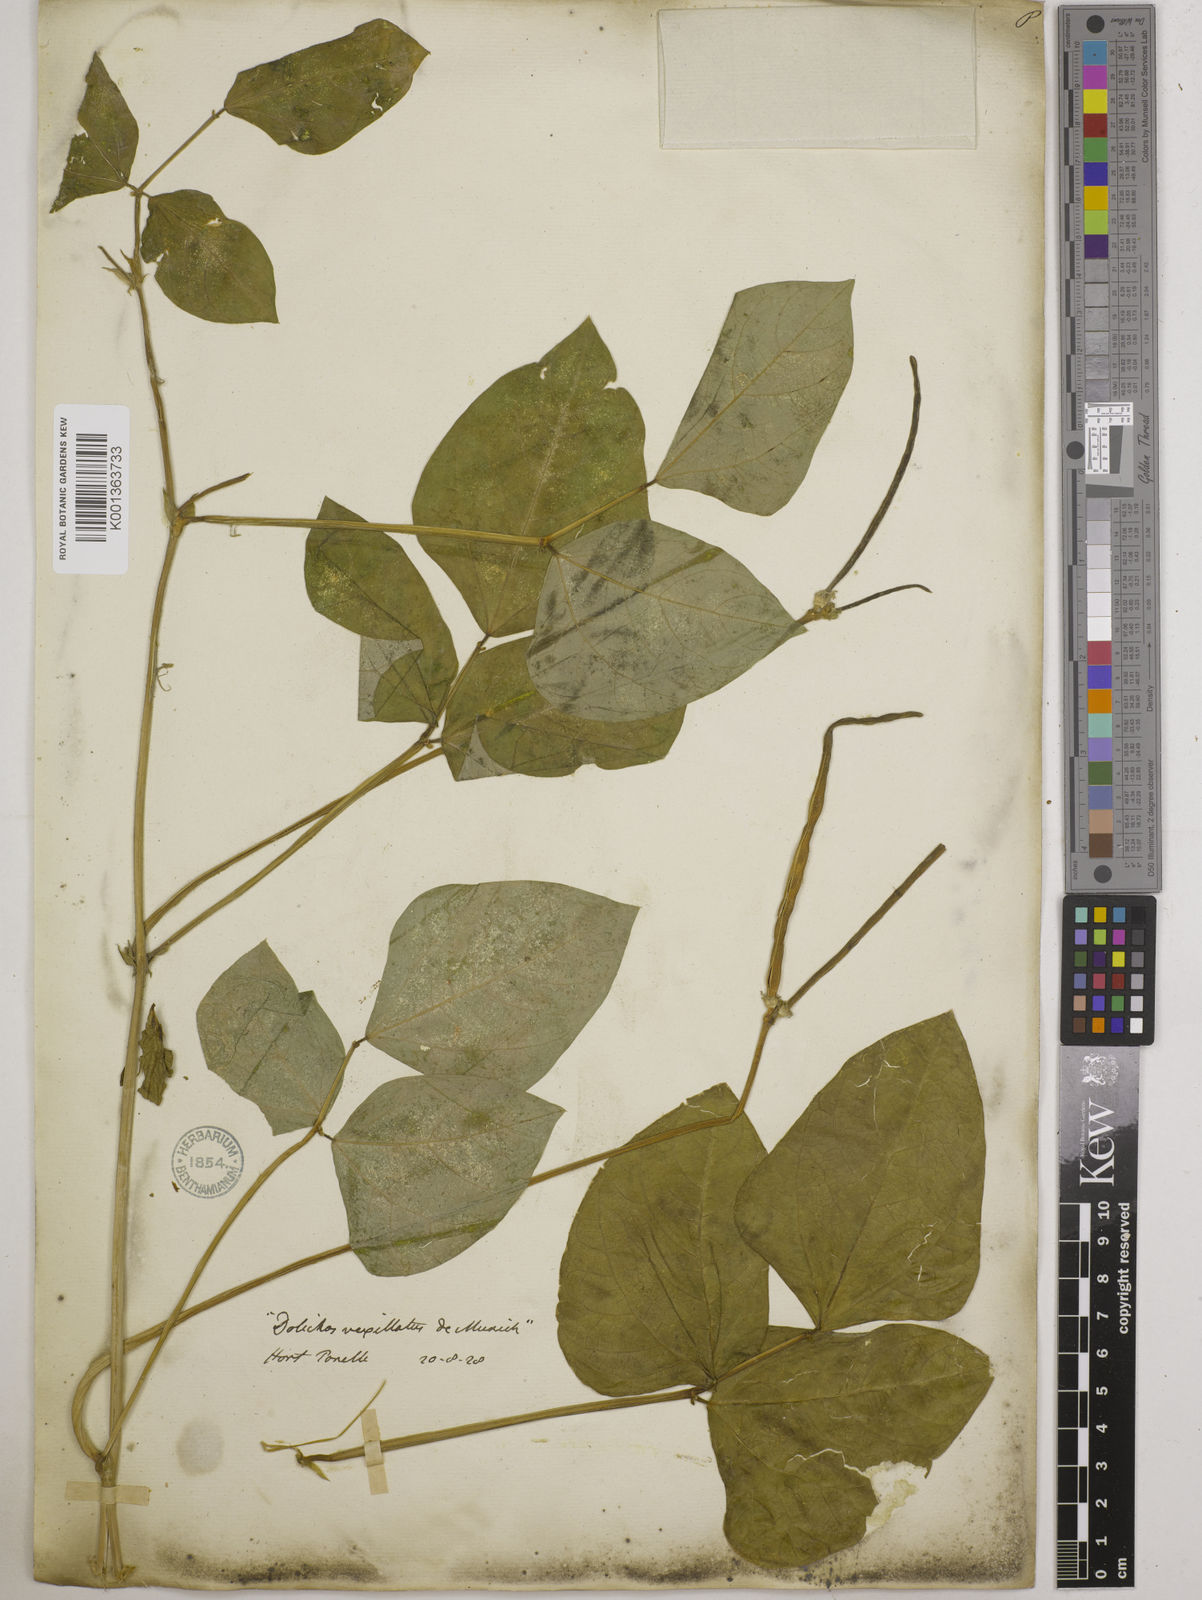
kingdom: Plantae
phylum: Tracheophyta
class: Magnoliopsida
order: Fabales
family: Fabaceae
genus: Vigna
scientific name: Vigna unguiculata
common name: Cowpea
